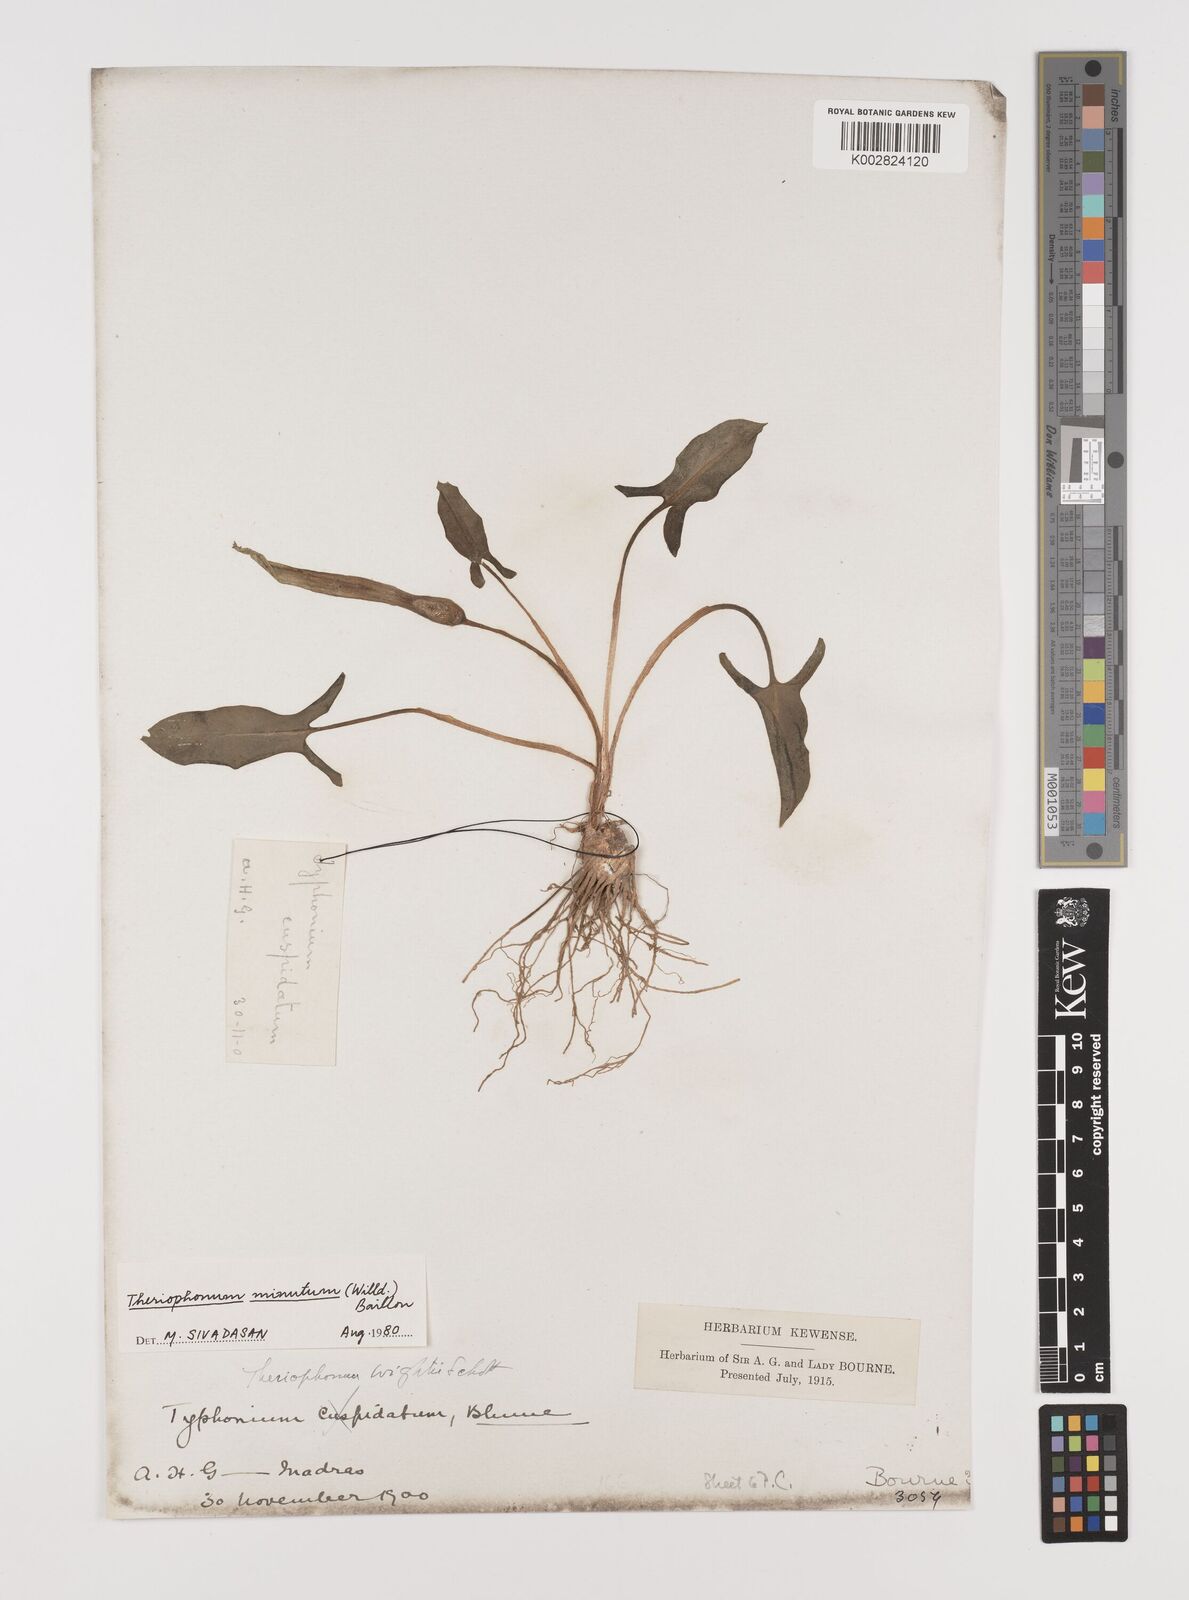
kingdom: Plantae
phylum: Tracheophyta
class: Liliopsida
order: Alismatales
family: Araceae
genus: Theriophonum
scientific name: Theriophonum minutum
